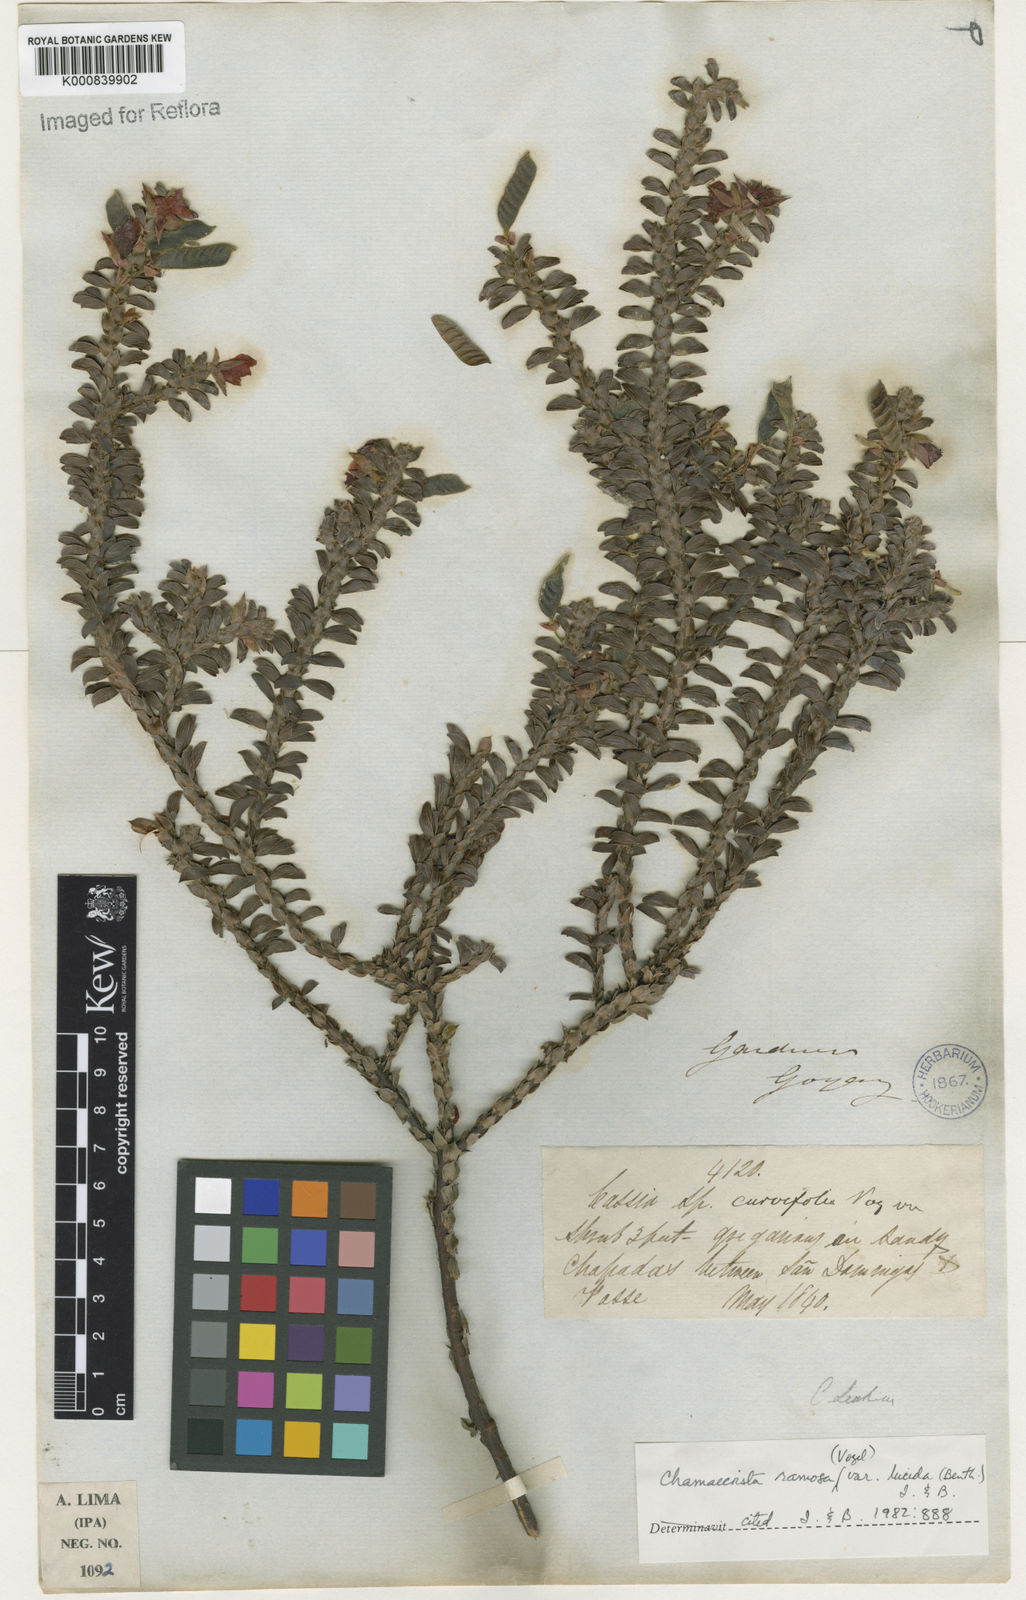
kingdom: Plantae
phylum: Tracheophyta
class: Magnoliopsida
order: Fabales
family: Fabaceae
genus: Chamaecrista
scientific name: Chamaecrista ramosa
